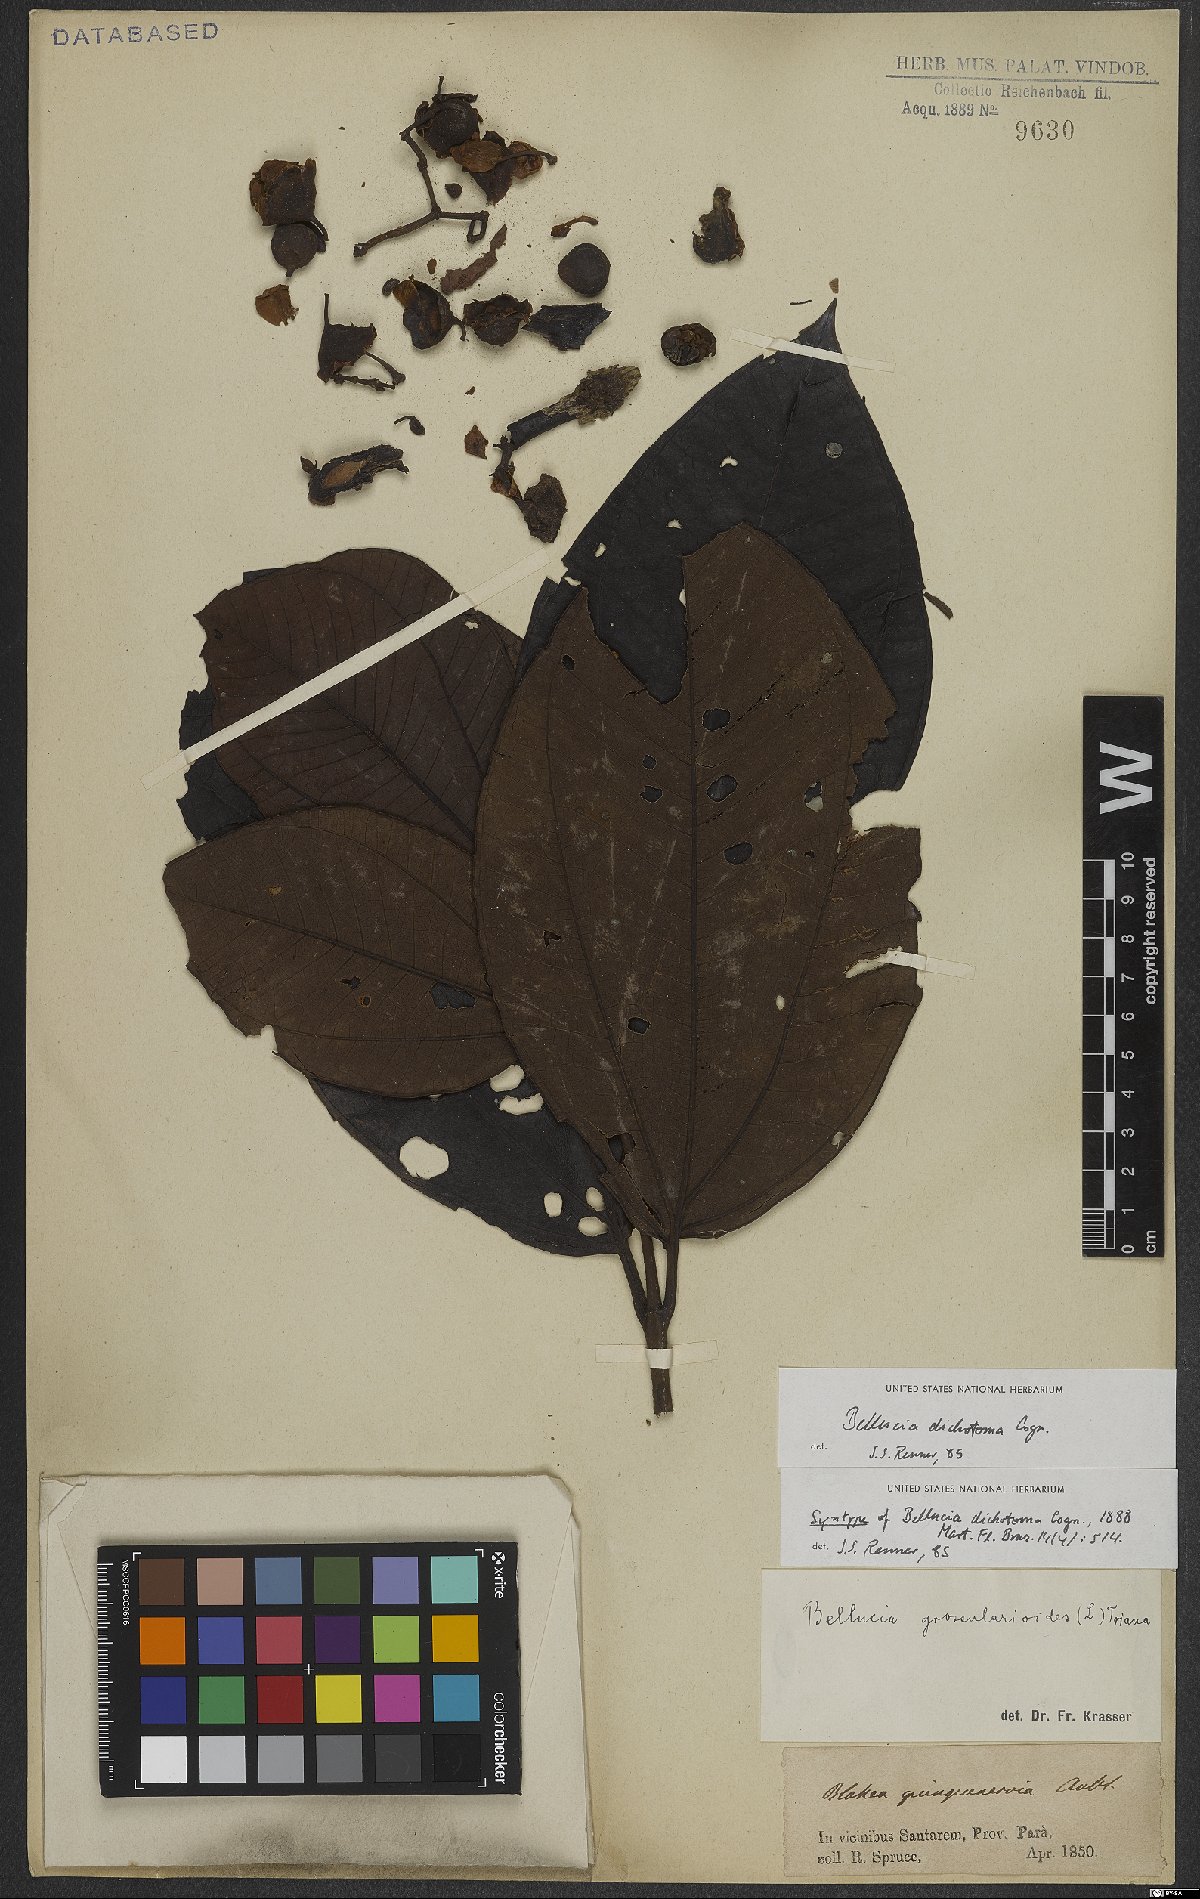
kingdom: Plantae
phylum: Tracheophyta
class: Magnoliopsida
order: Myrtales
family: Melastomataceae
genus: Bellucia
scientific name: Bellucia imperialis
